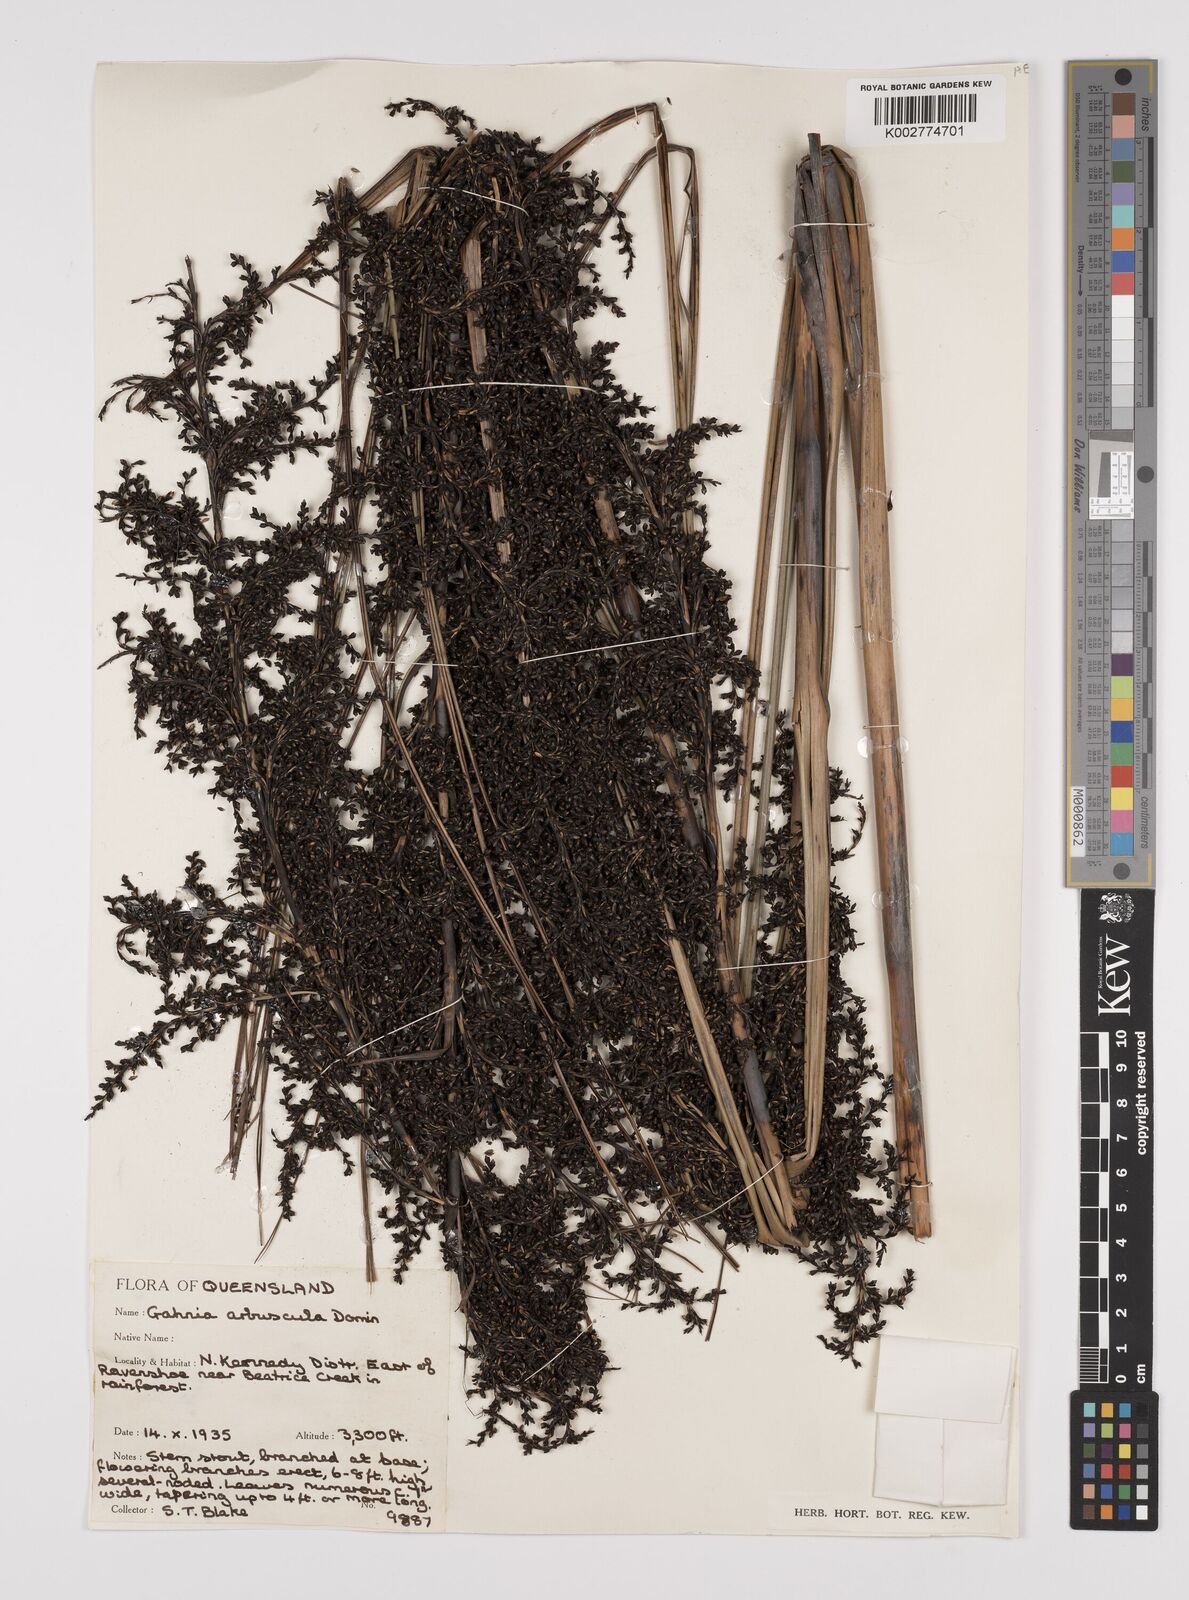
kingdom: Plantae
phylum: Tracheophyta
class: Liliopsida
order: Poales
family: Cyperaceae
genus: Gahnia
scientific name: Gahnia sieberiana
